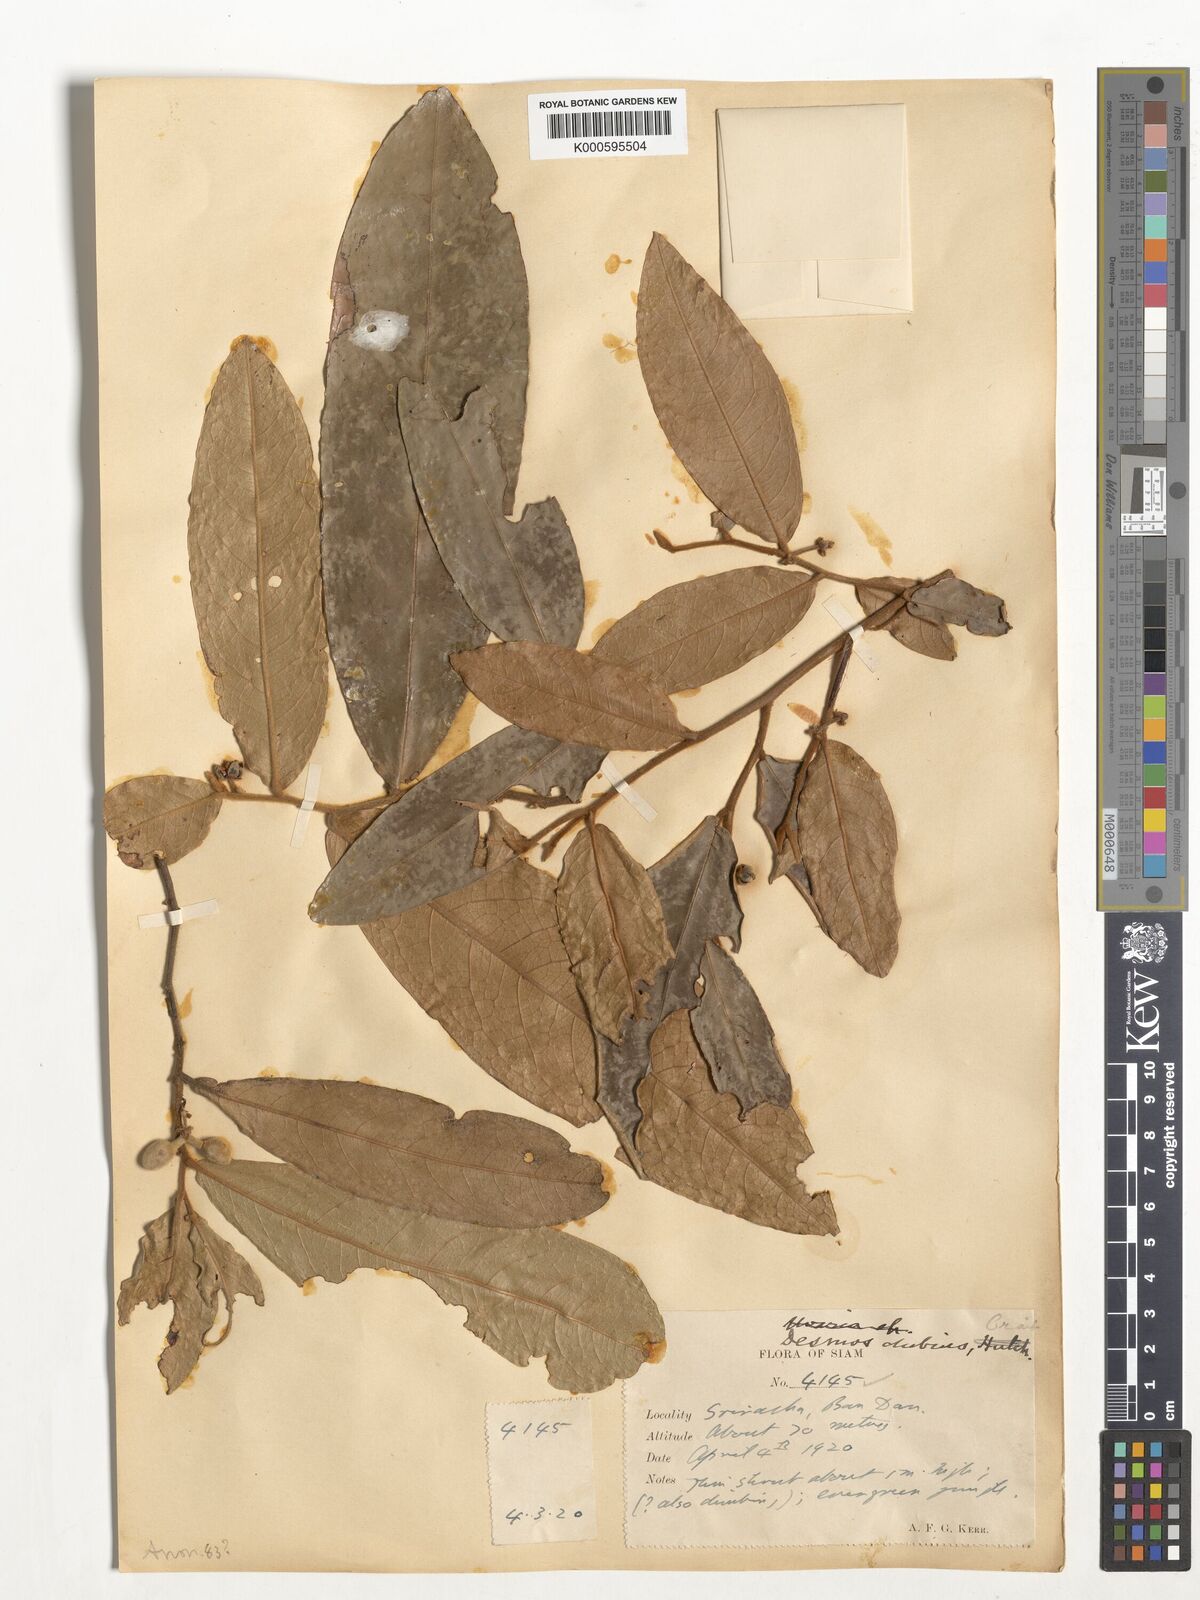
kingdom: Plantae
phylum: Tracheophyta
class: Magnoliopsida
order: Magnoliales
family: Annonaceae
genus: Polyalthia
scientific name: Polyalthia debilis
